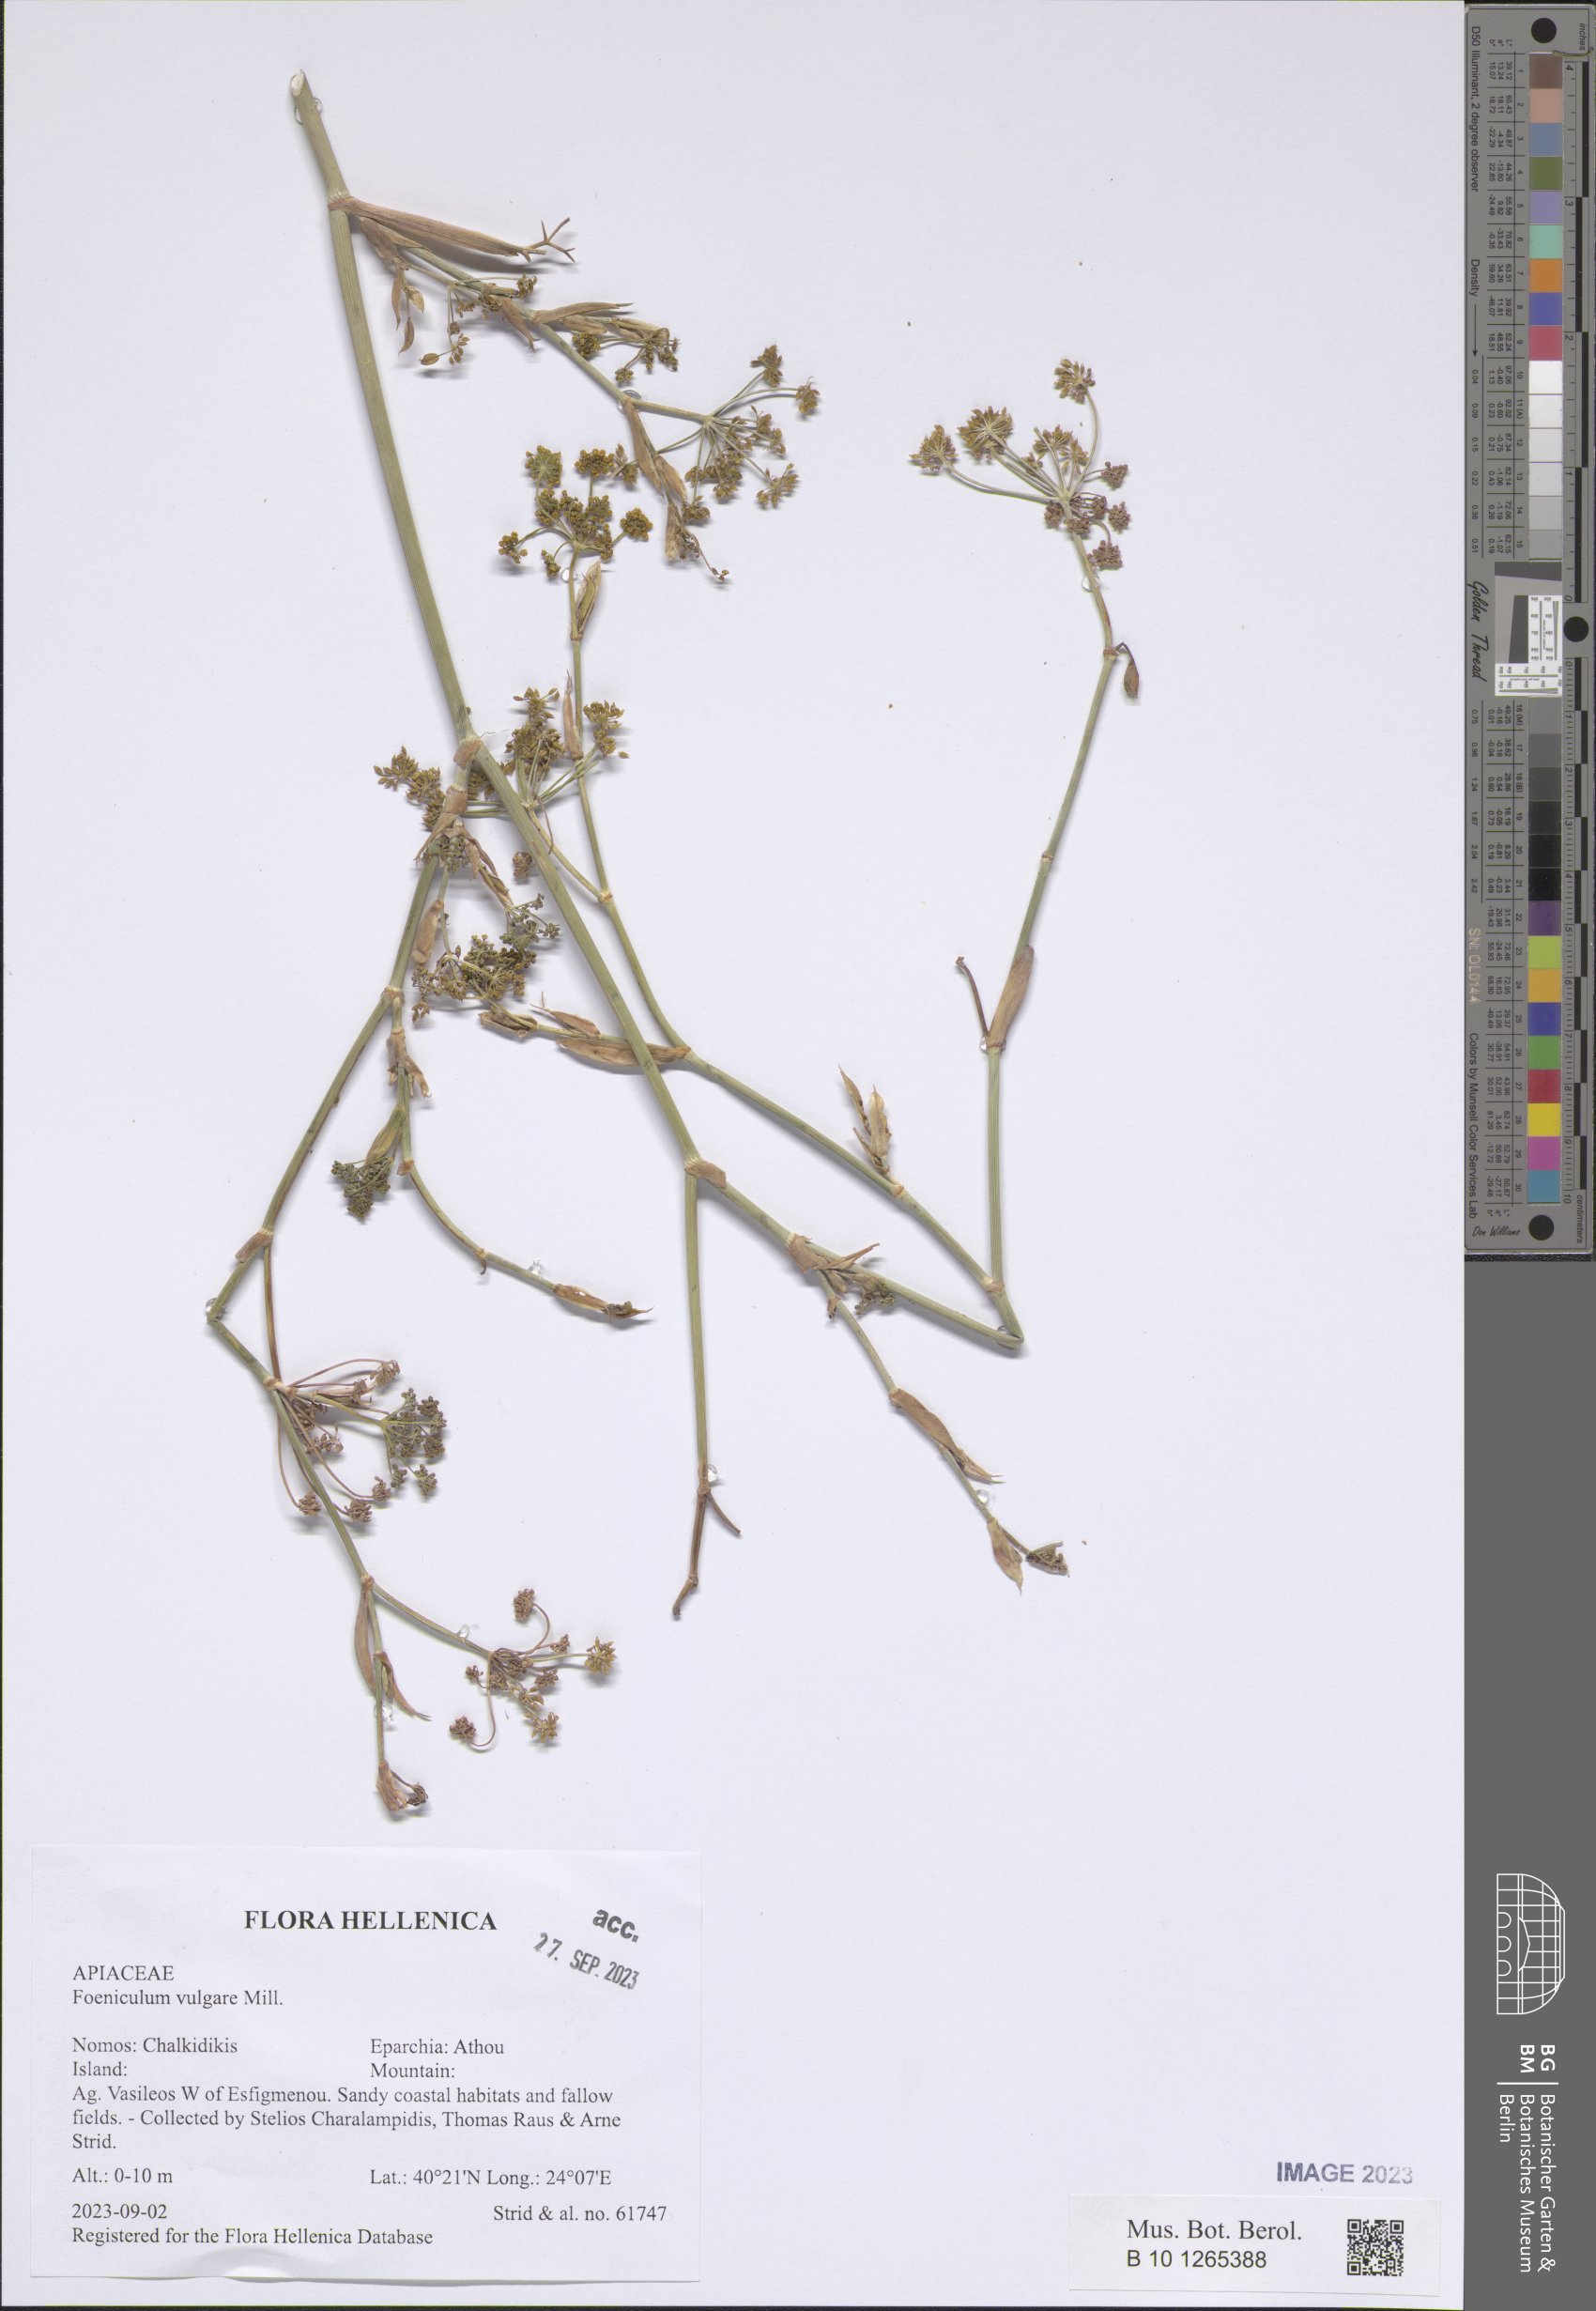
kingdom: Plantae
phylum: Tracheophyta
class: Magnoliopsida
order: Apiales
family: Apiaceae
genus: Foeniculum
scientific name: Foeniculum vulgare
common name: Fennel
